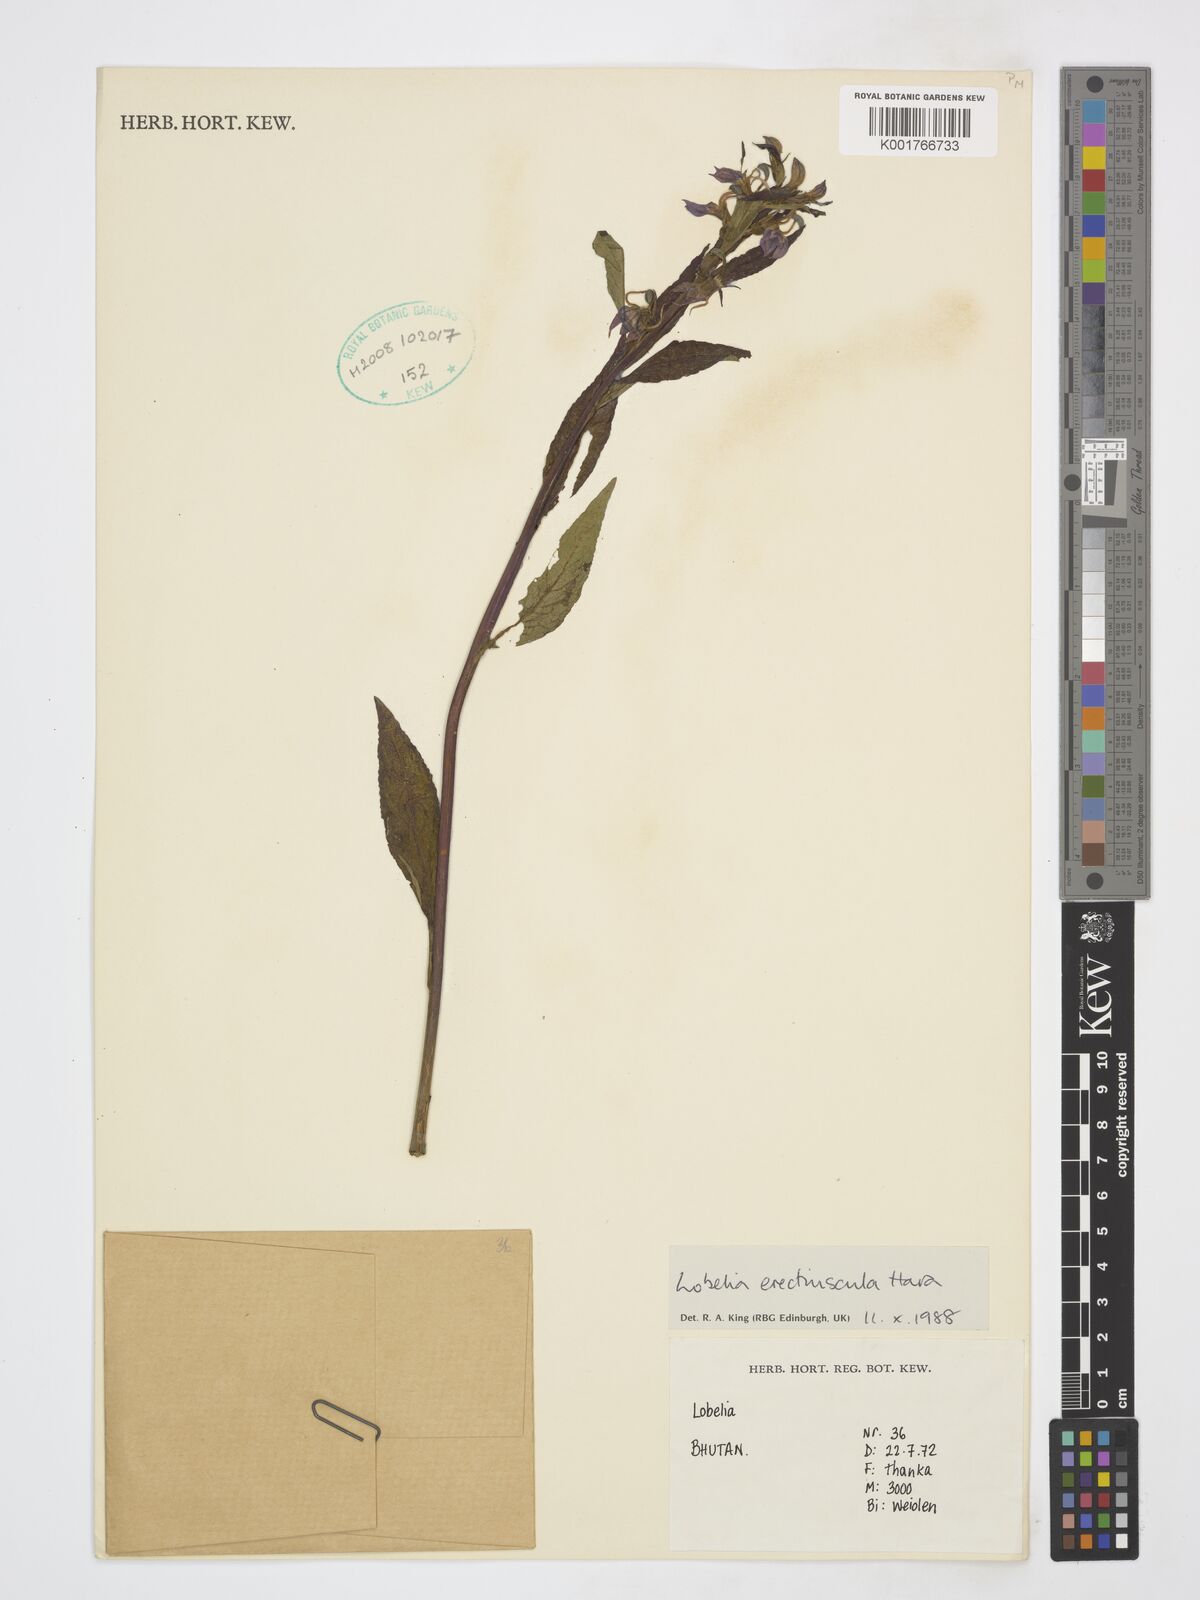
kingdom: Plantae
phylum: Tracheophyta
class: Magnoliopsida
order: Asterales
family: Campanulaceae
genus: Lobelia
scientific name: Lobelia erectiuscula
